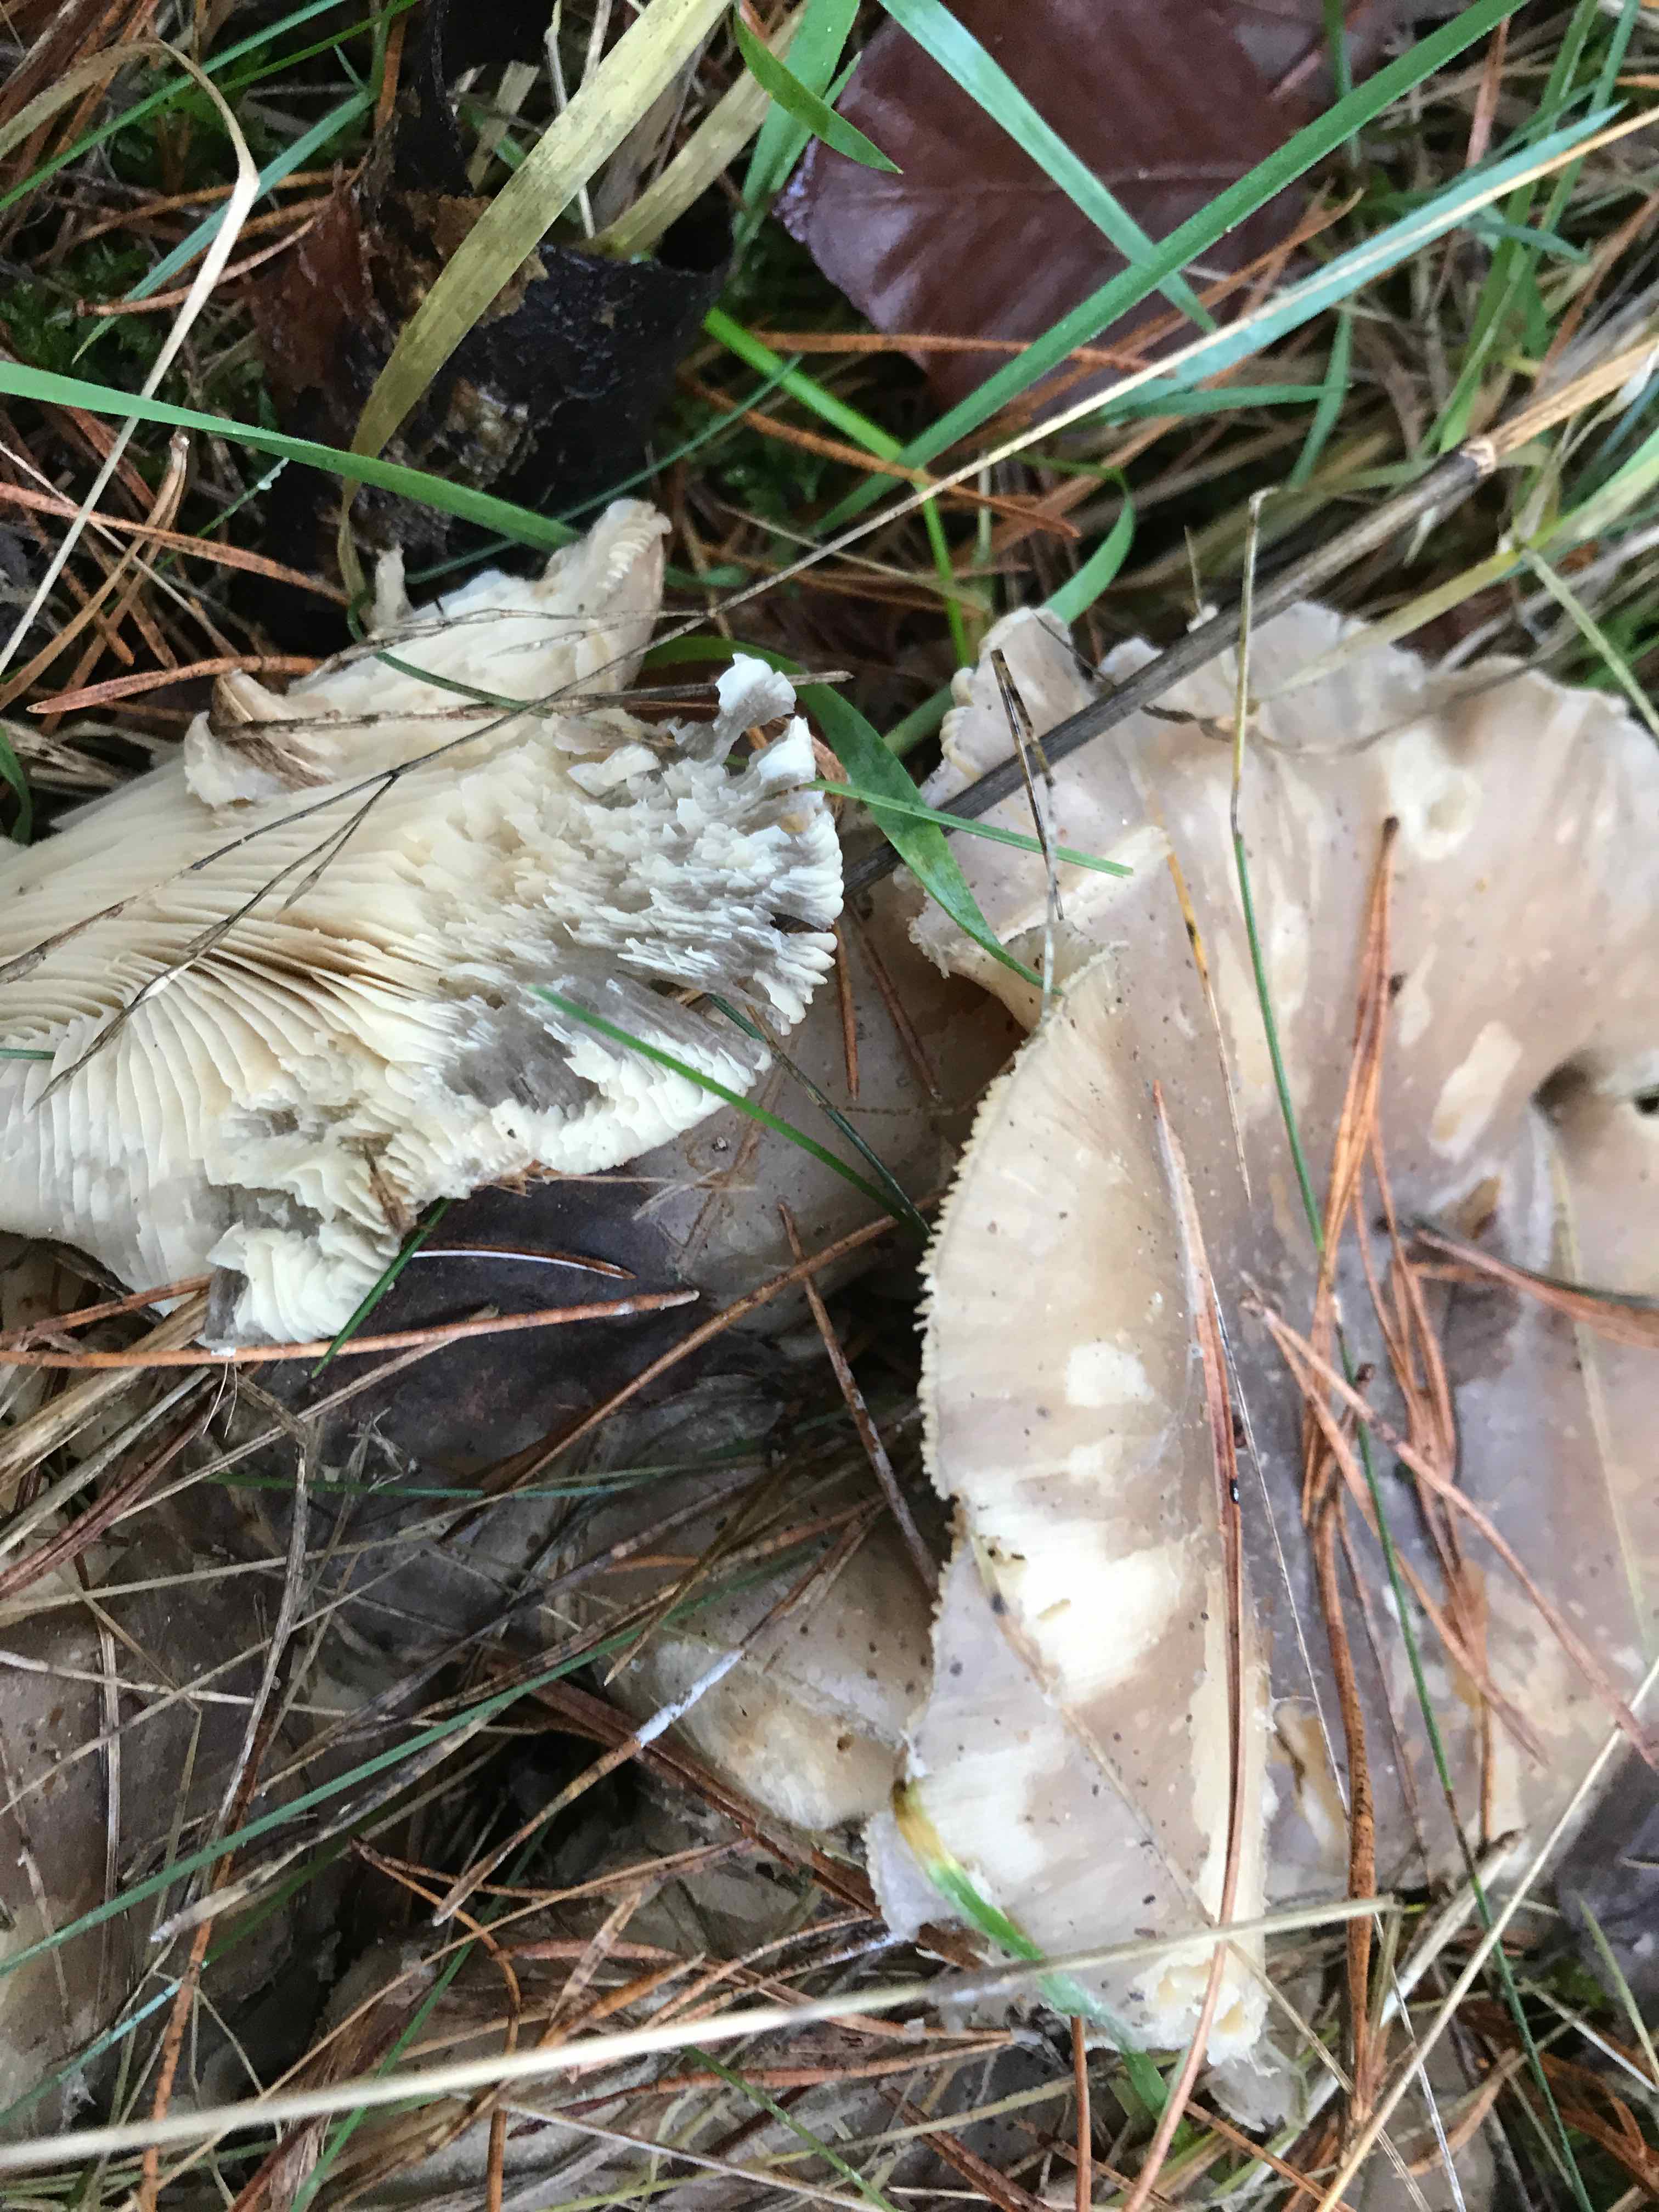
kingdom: Fungi
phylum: Basidiomycota
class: Agaricomycetes
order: Agaricales
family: Tricholomataceae
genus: Clitocybe
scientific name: Clitocybe nebularis
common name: tåge-tragthat
